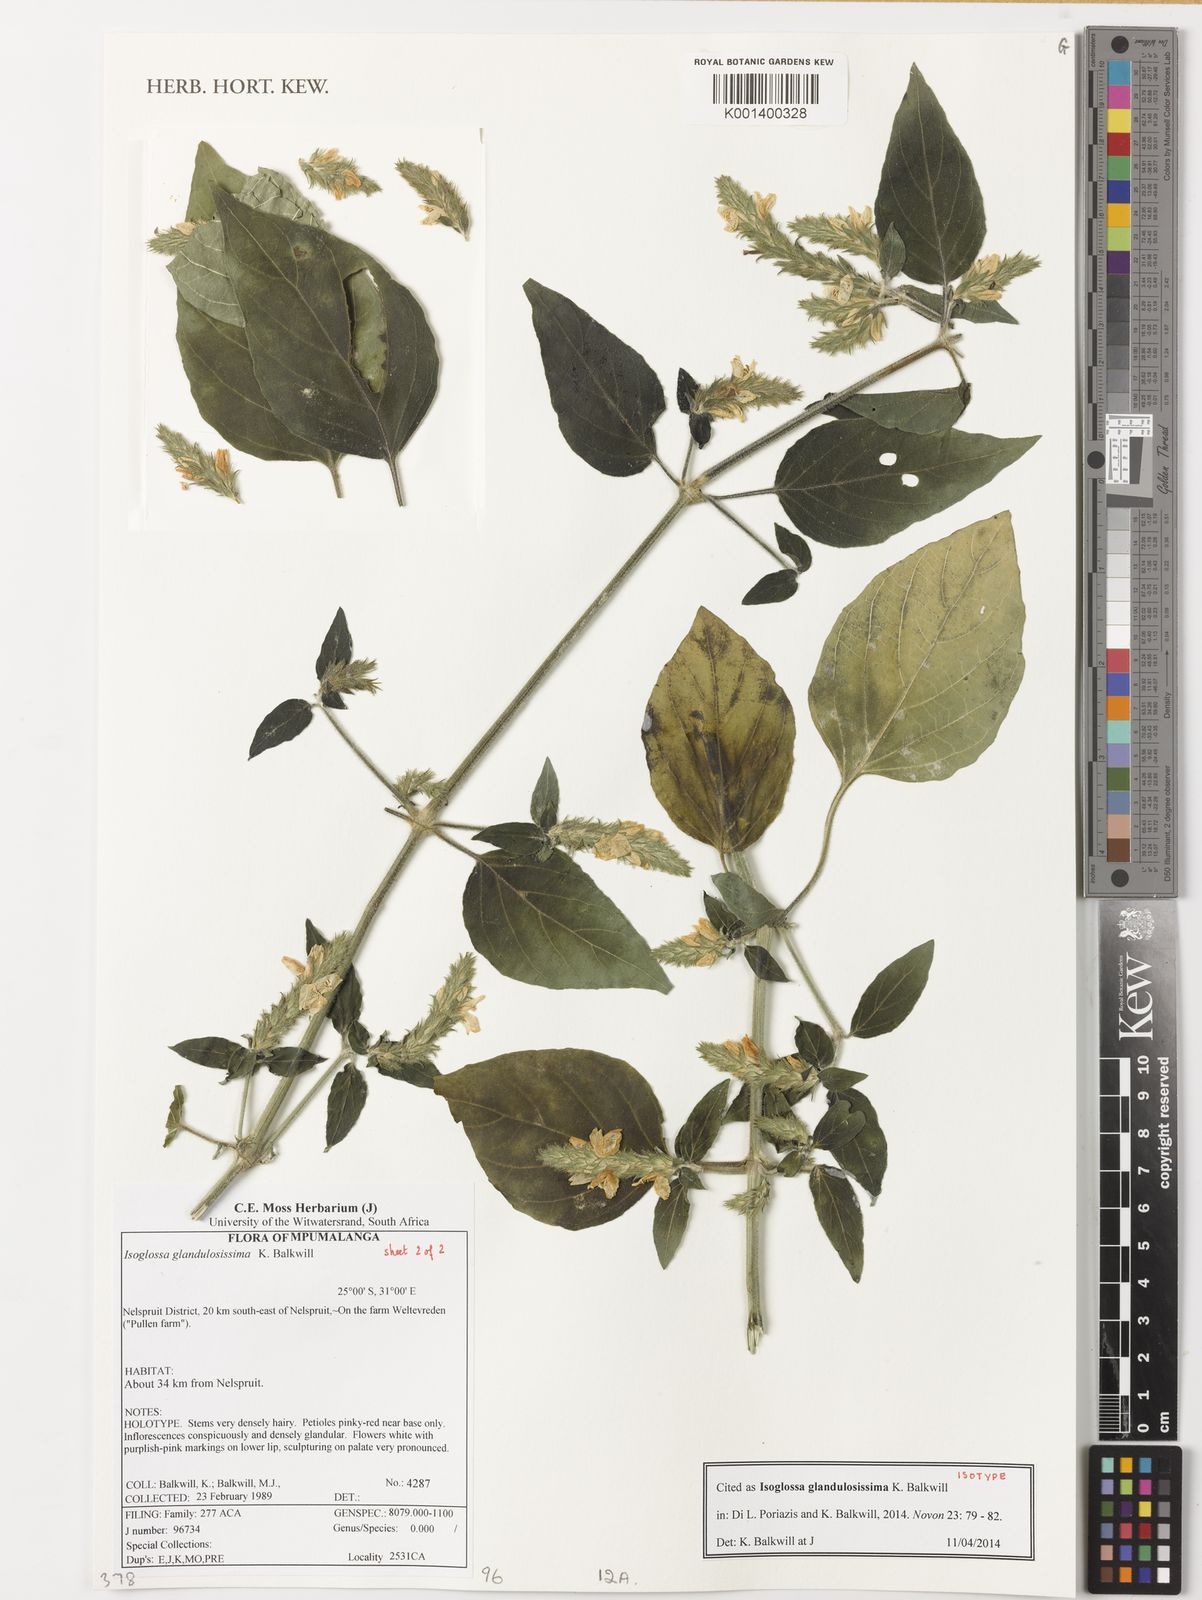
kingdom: Plantae
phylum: Tracheophyta
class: Magnoliopsida
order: Lamiales
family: Acanthaceae
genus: Isoglossa
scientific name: Isoglossa glandulosissima
